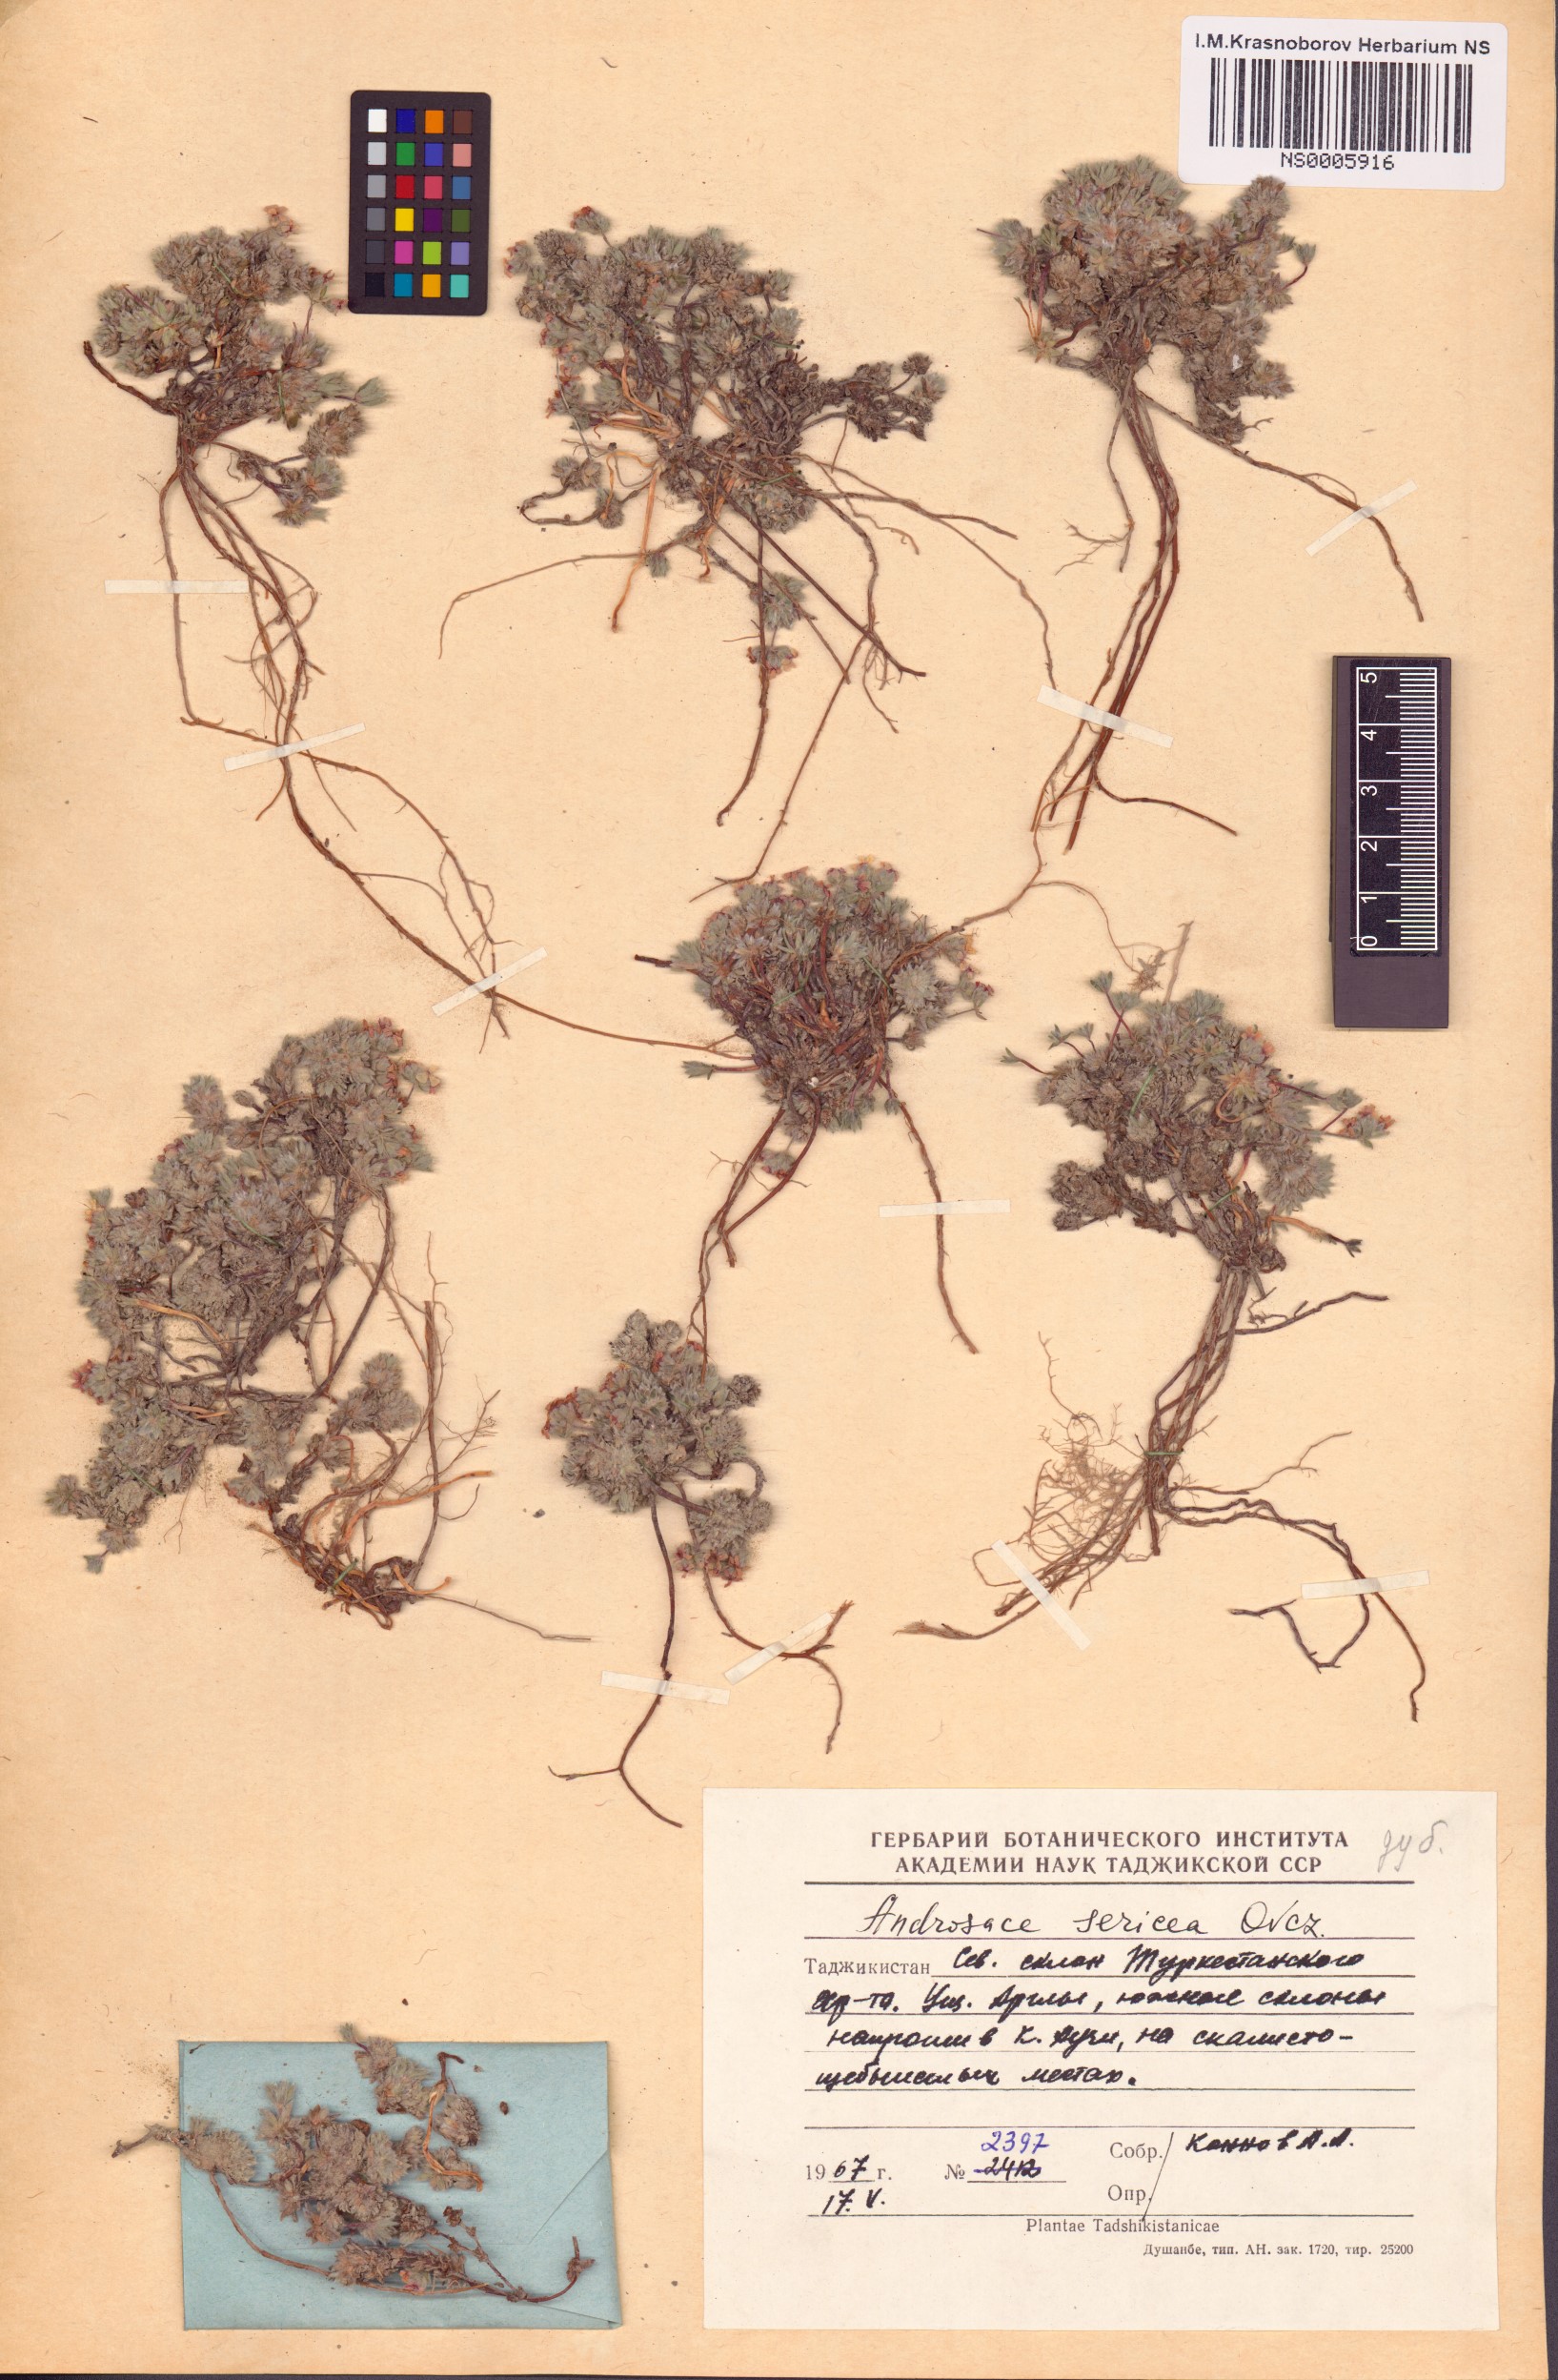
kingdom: Plantae
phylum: Tracheophyta
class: Magnoliopsida
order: Ericales
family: Primulaceae
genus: Androsace
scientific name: Androsace sericea
